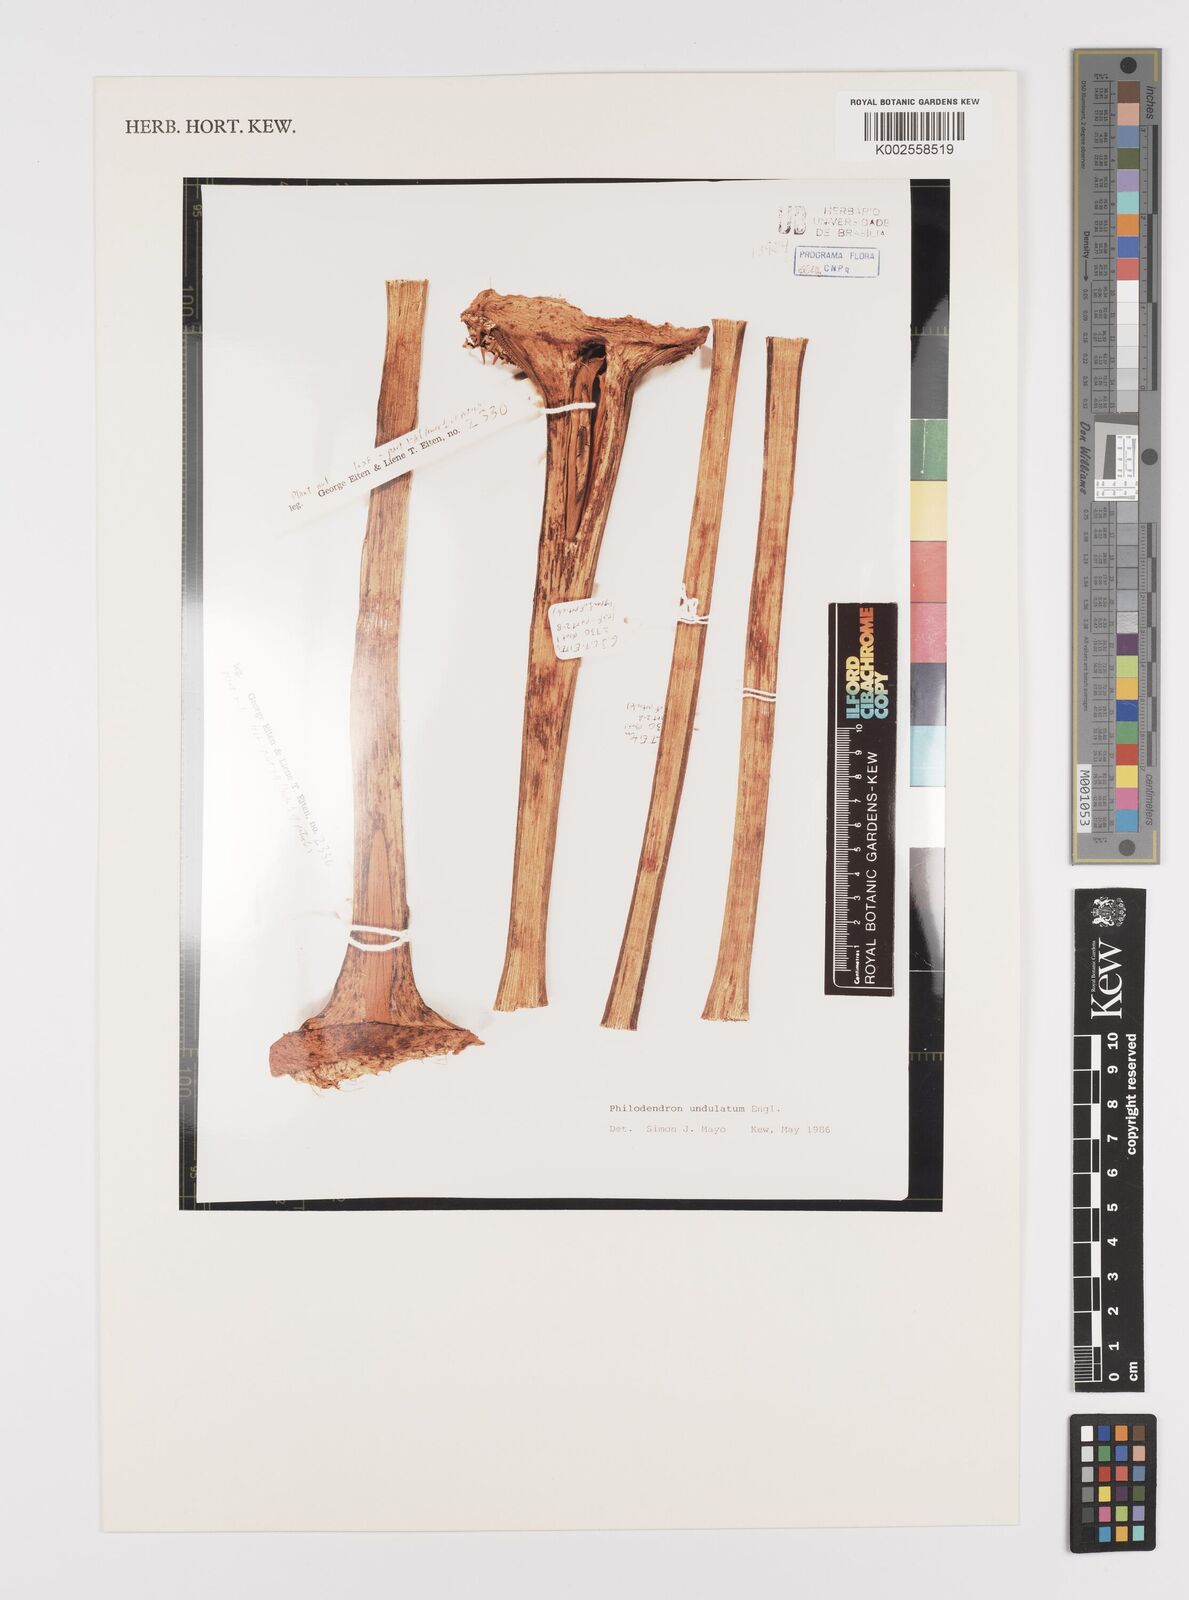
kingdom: Plantae
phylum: Tracheophyta
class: Liliopsida
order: Alismatales
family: Araceae
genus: Thaumatophyllum
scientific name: Thaumatophyllum undulatum
